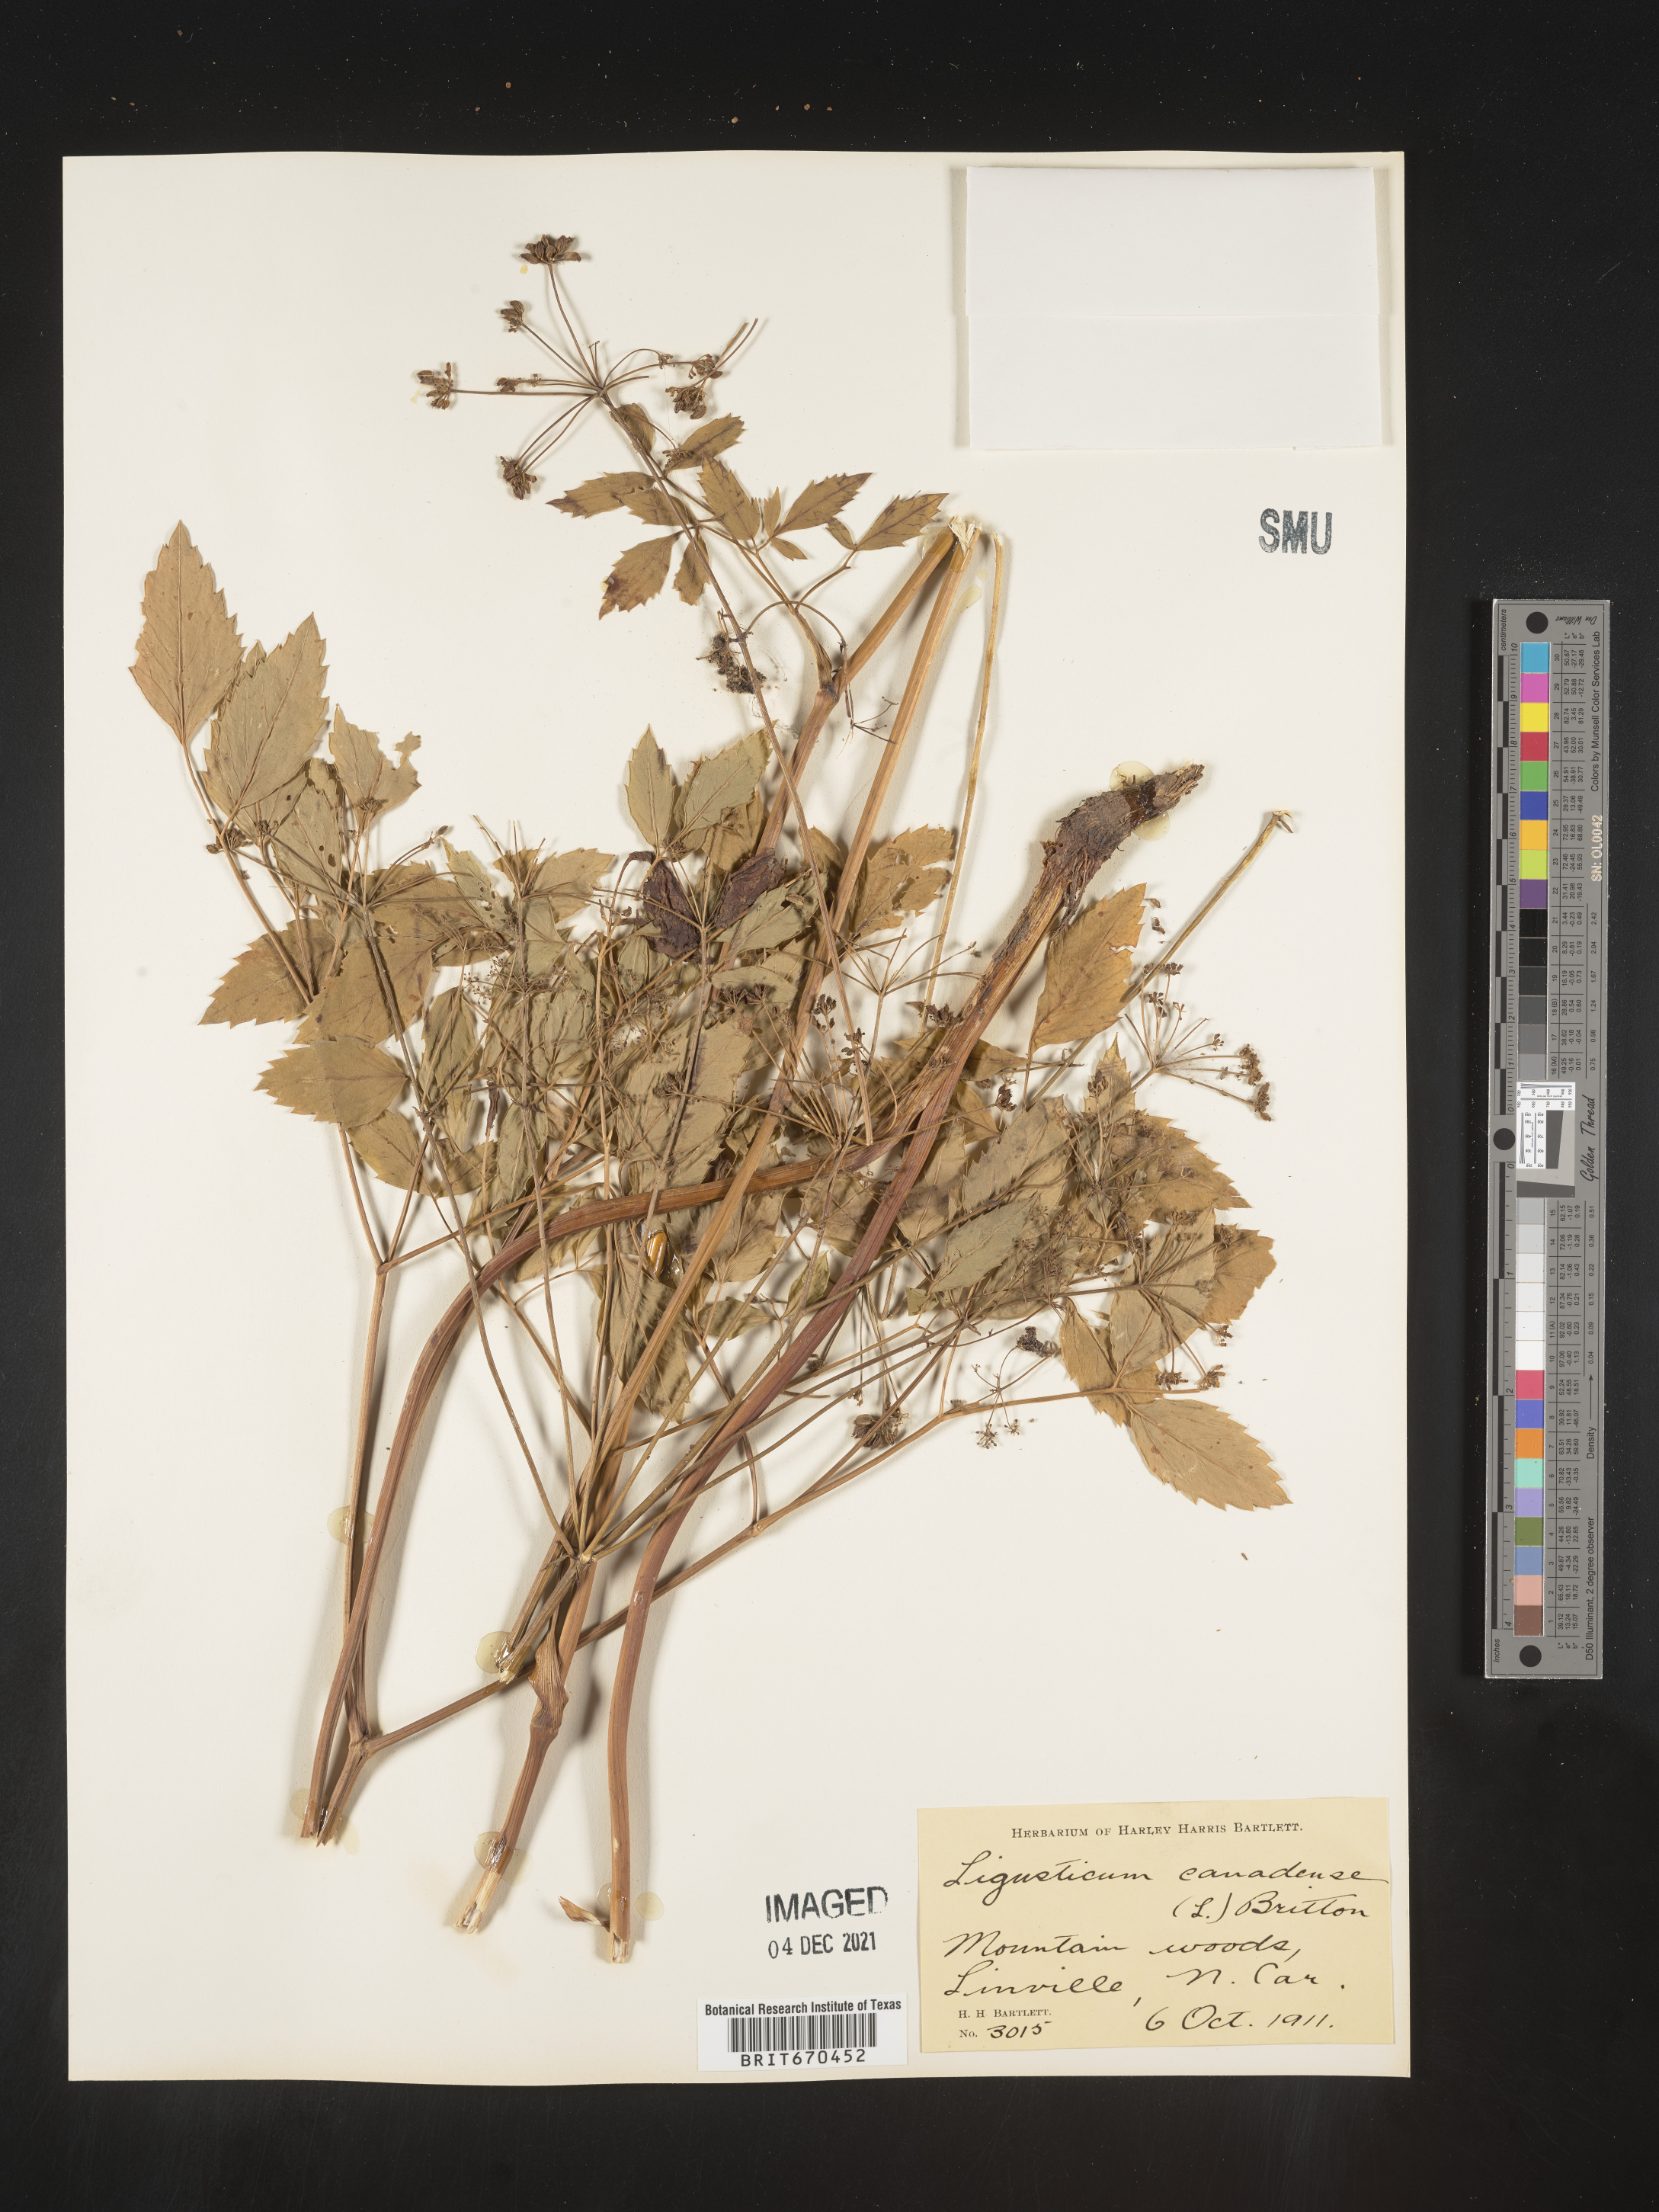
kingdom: Plantae
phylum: Tracheophyta
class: Magnoliopsida
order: Apiales
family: Apiaceae
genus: Ligusticum
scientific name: Ligusticum
